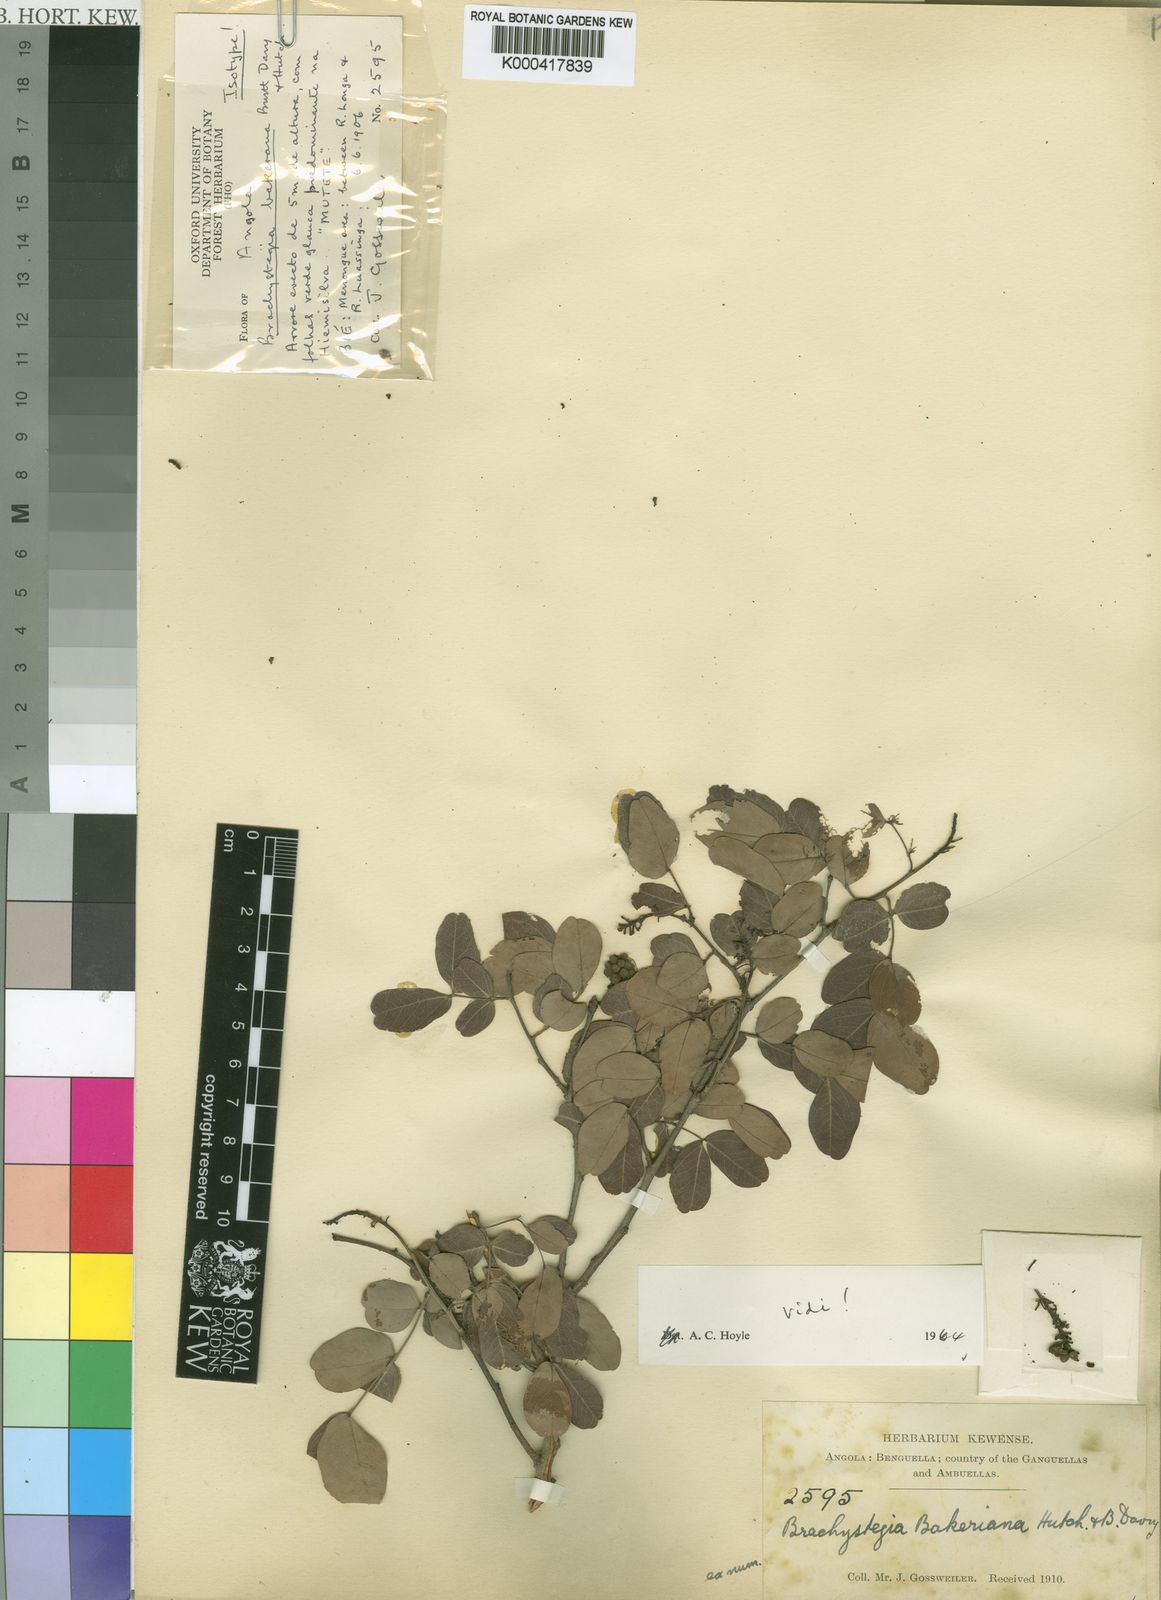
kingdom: Plantae
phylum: Tracheophyta
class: Magnoliopsida
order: Fabales
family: Fabaceae
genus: Brachystegia
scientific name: Brachystegia bakeriana
